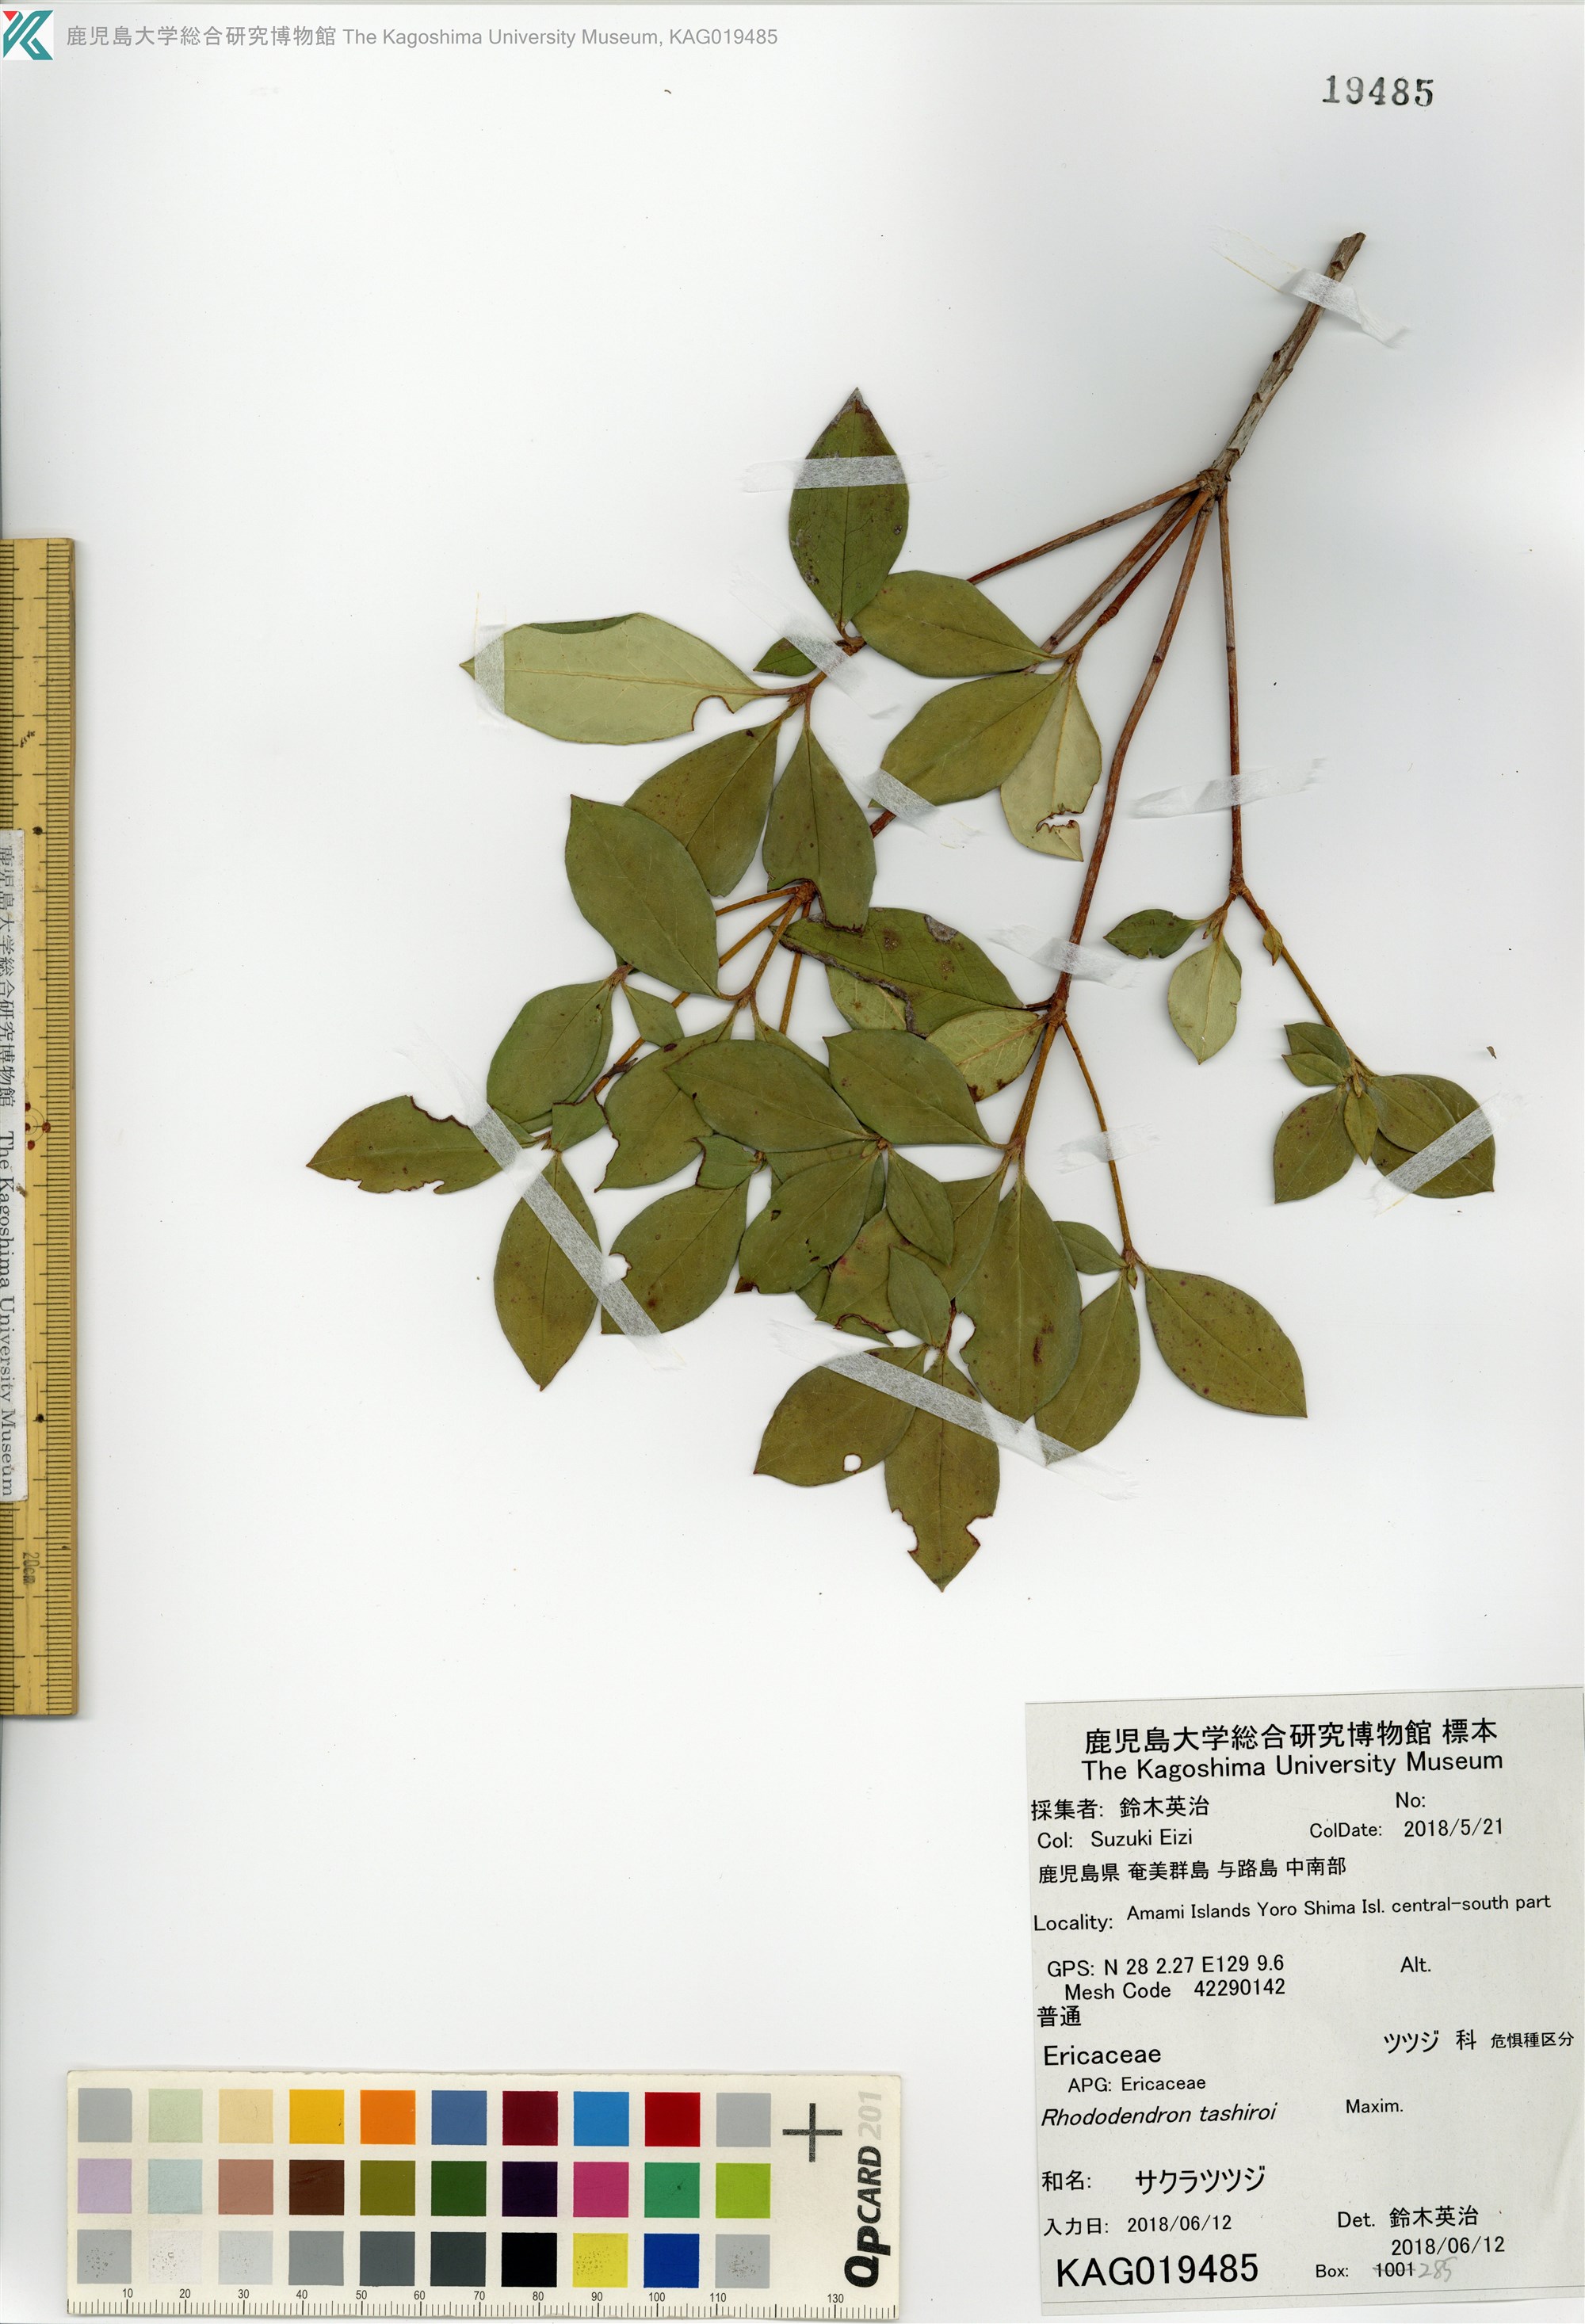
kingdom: Plantae
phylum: Tracheophyta
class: Magnoliopsida
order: Ericales
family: Ericaceae
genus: Rhododendron
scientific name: Rhododendron tashiroi
